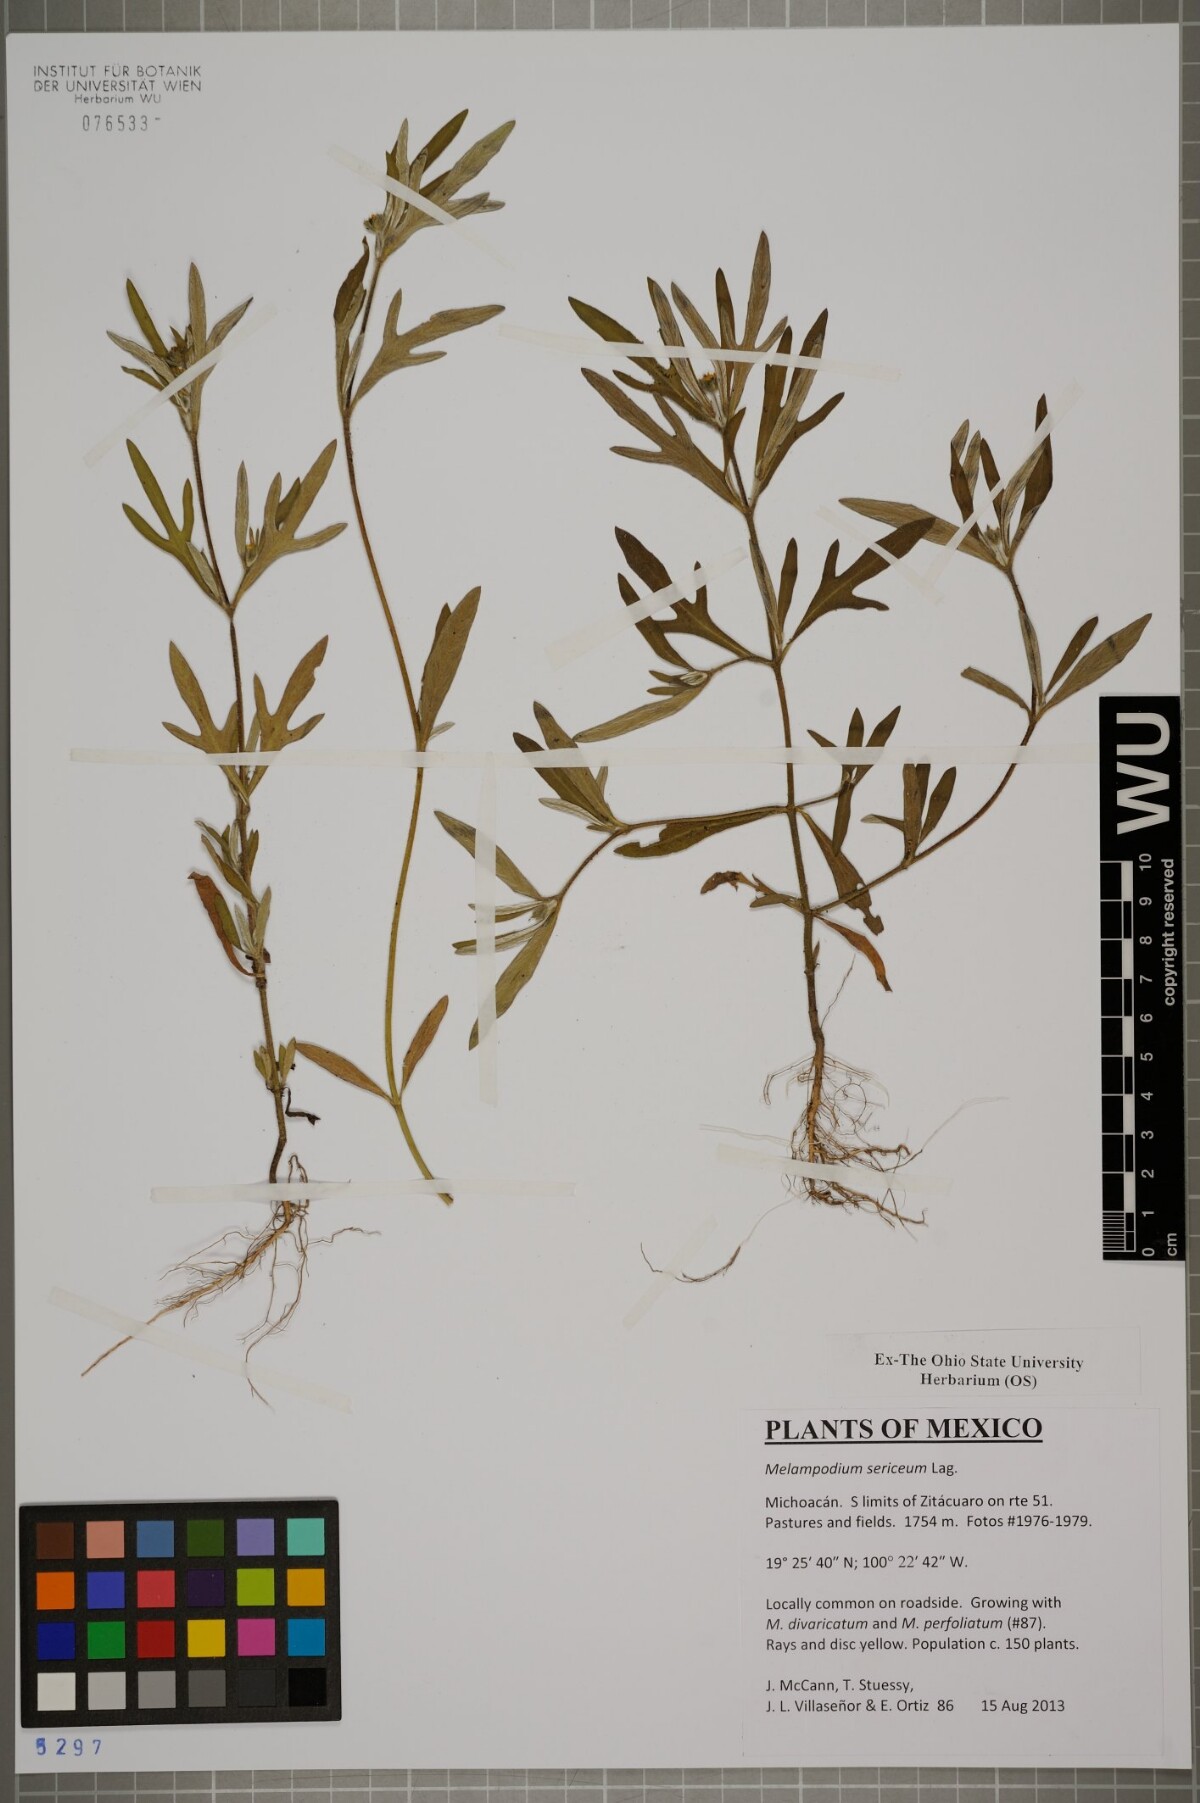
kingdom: Plantae
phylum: Tracheophyta
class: Magnoliopsida
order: Asterales
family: Asteraceae
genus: Melampodium
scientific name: Melampodium sericeum
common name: Rough blackfoot
